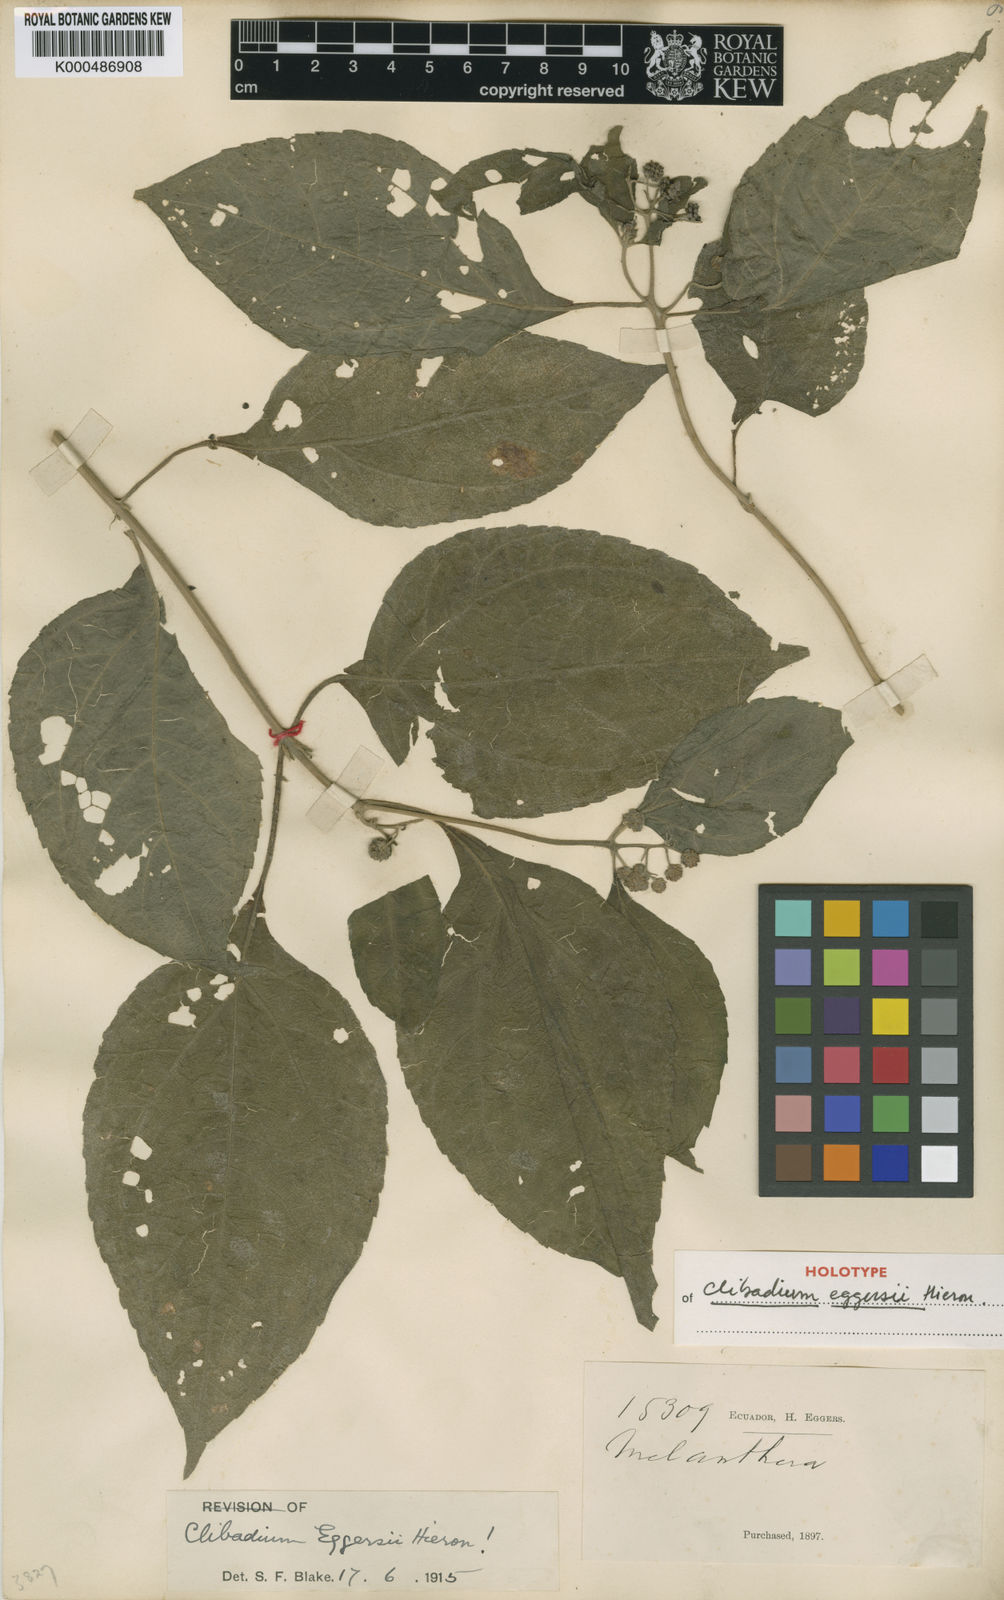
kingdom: Plantae
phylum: Tracheophyta
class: Magnoliopsida
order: Asterales
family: Asteraceae
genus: Clibadium
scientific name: Clibadium eggersii
